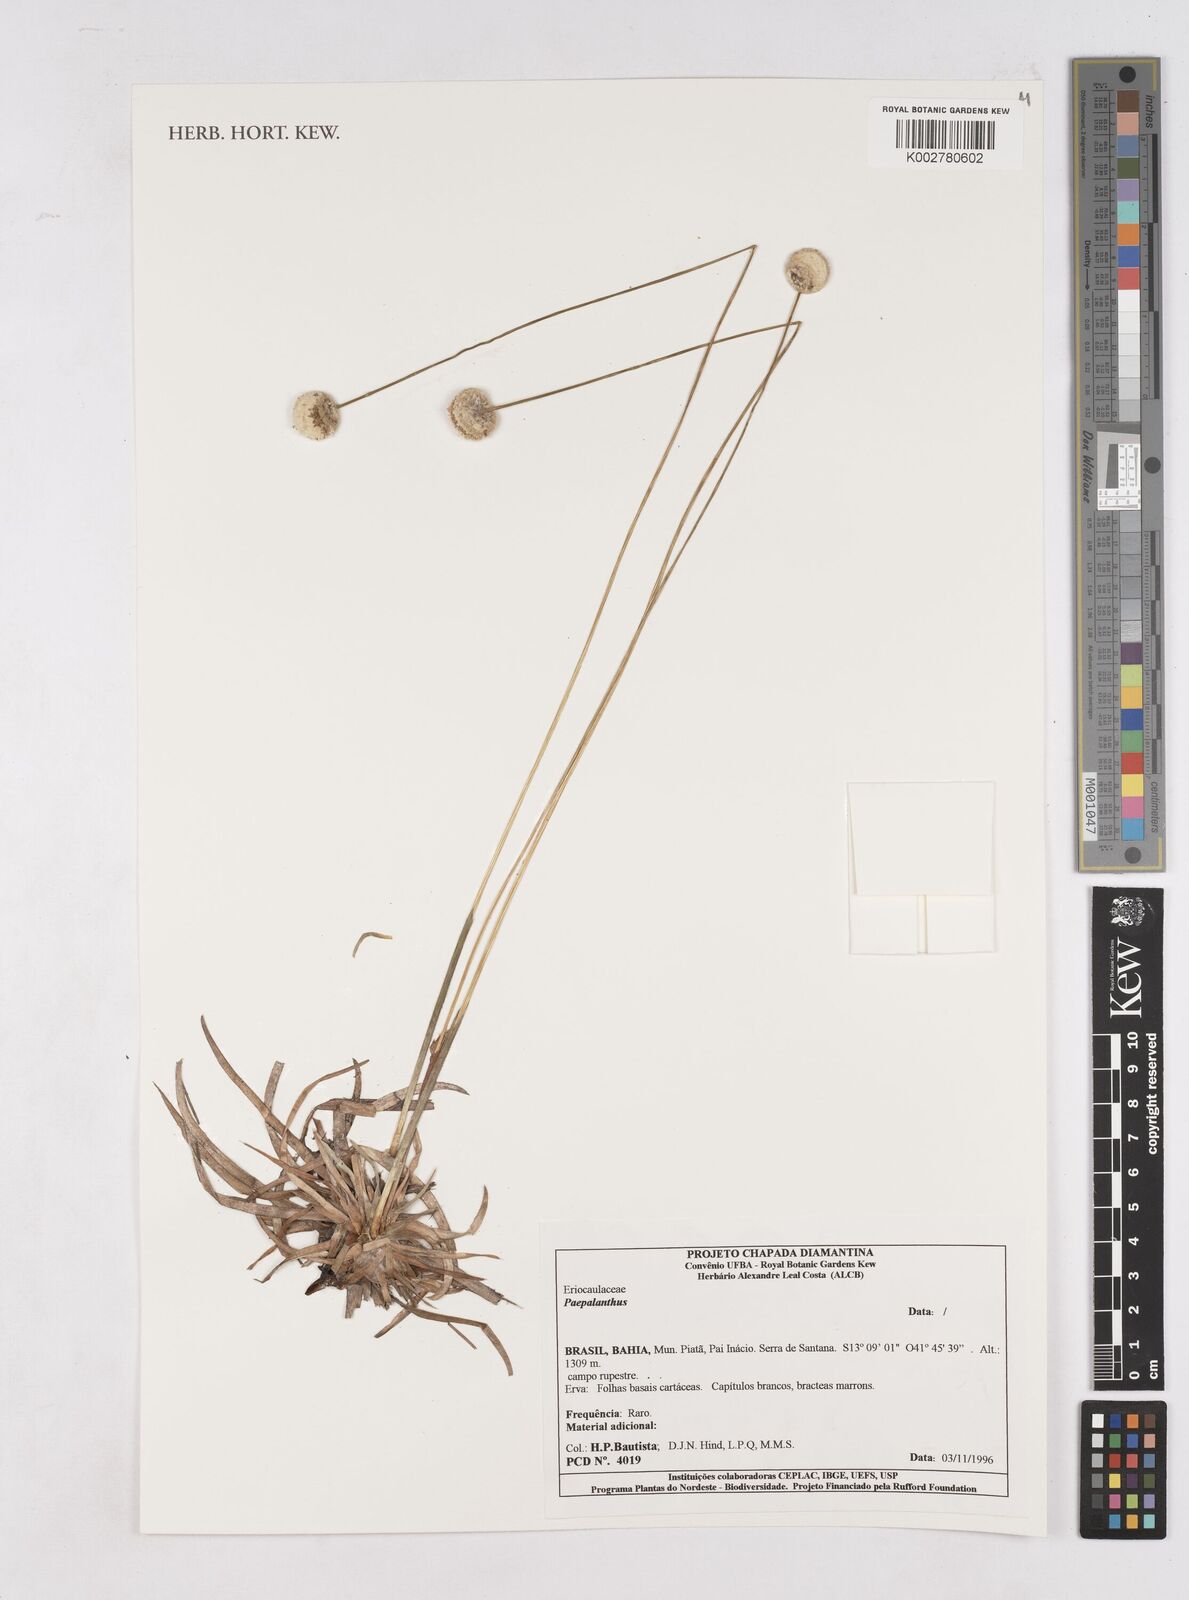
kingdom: Plantae
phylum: Tracheophyta
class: Liliopsida
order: Poales
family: Eriocaulaceae
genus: Paepalanthus
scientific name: Paepalanthus
